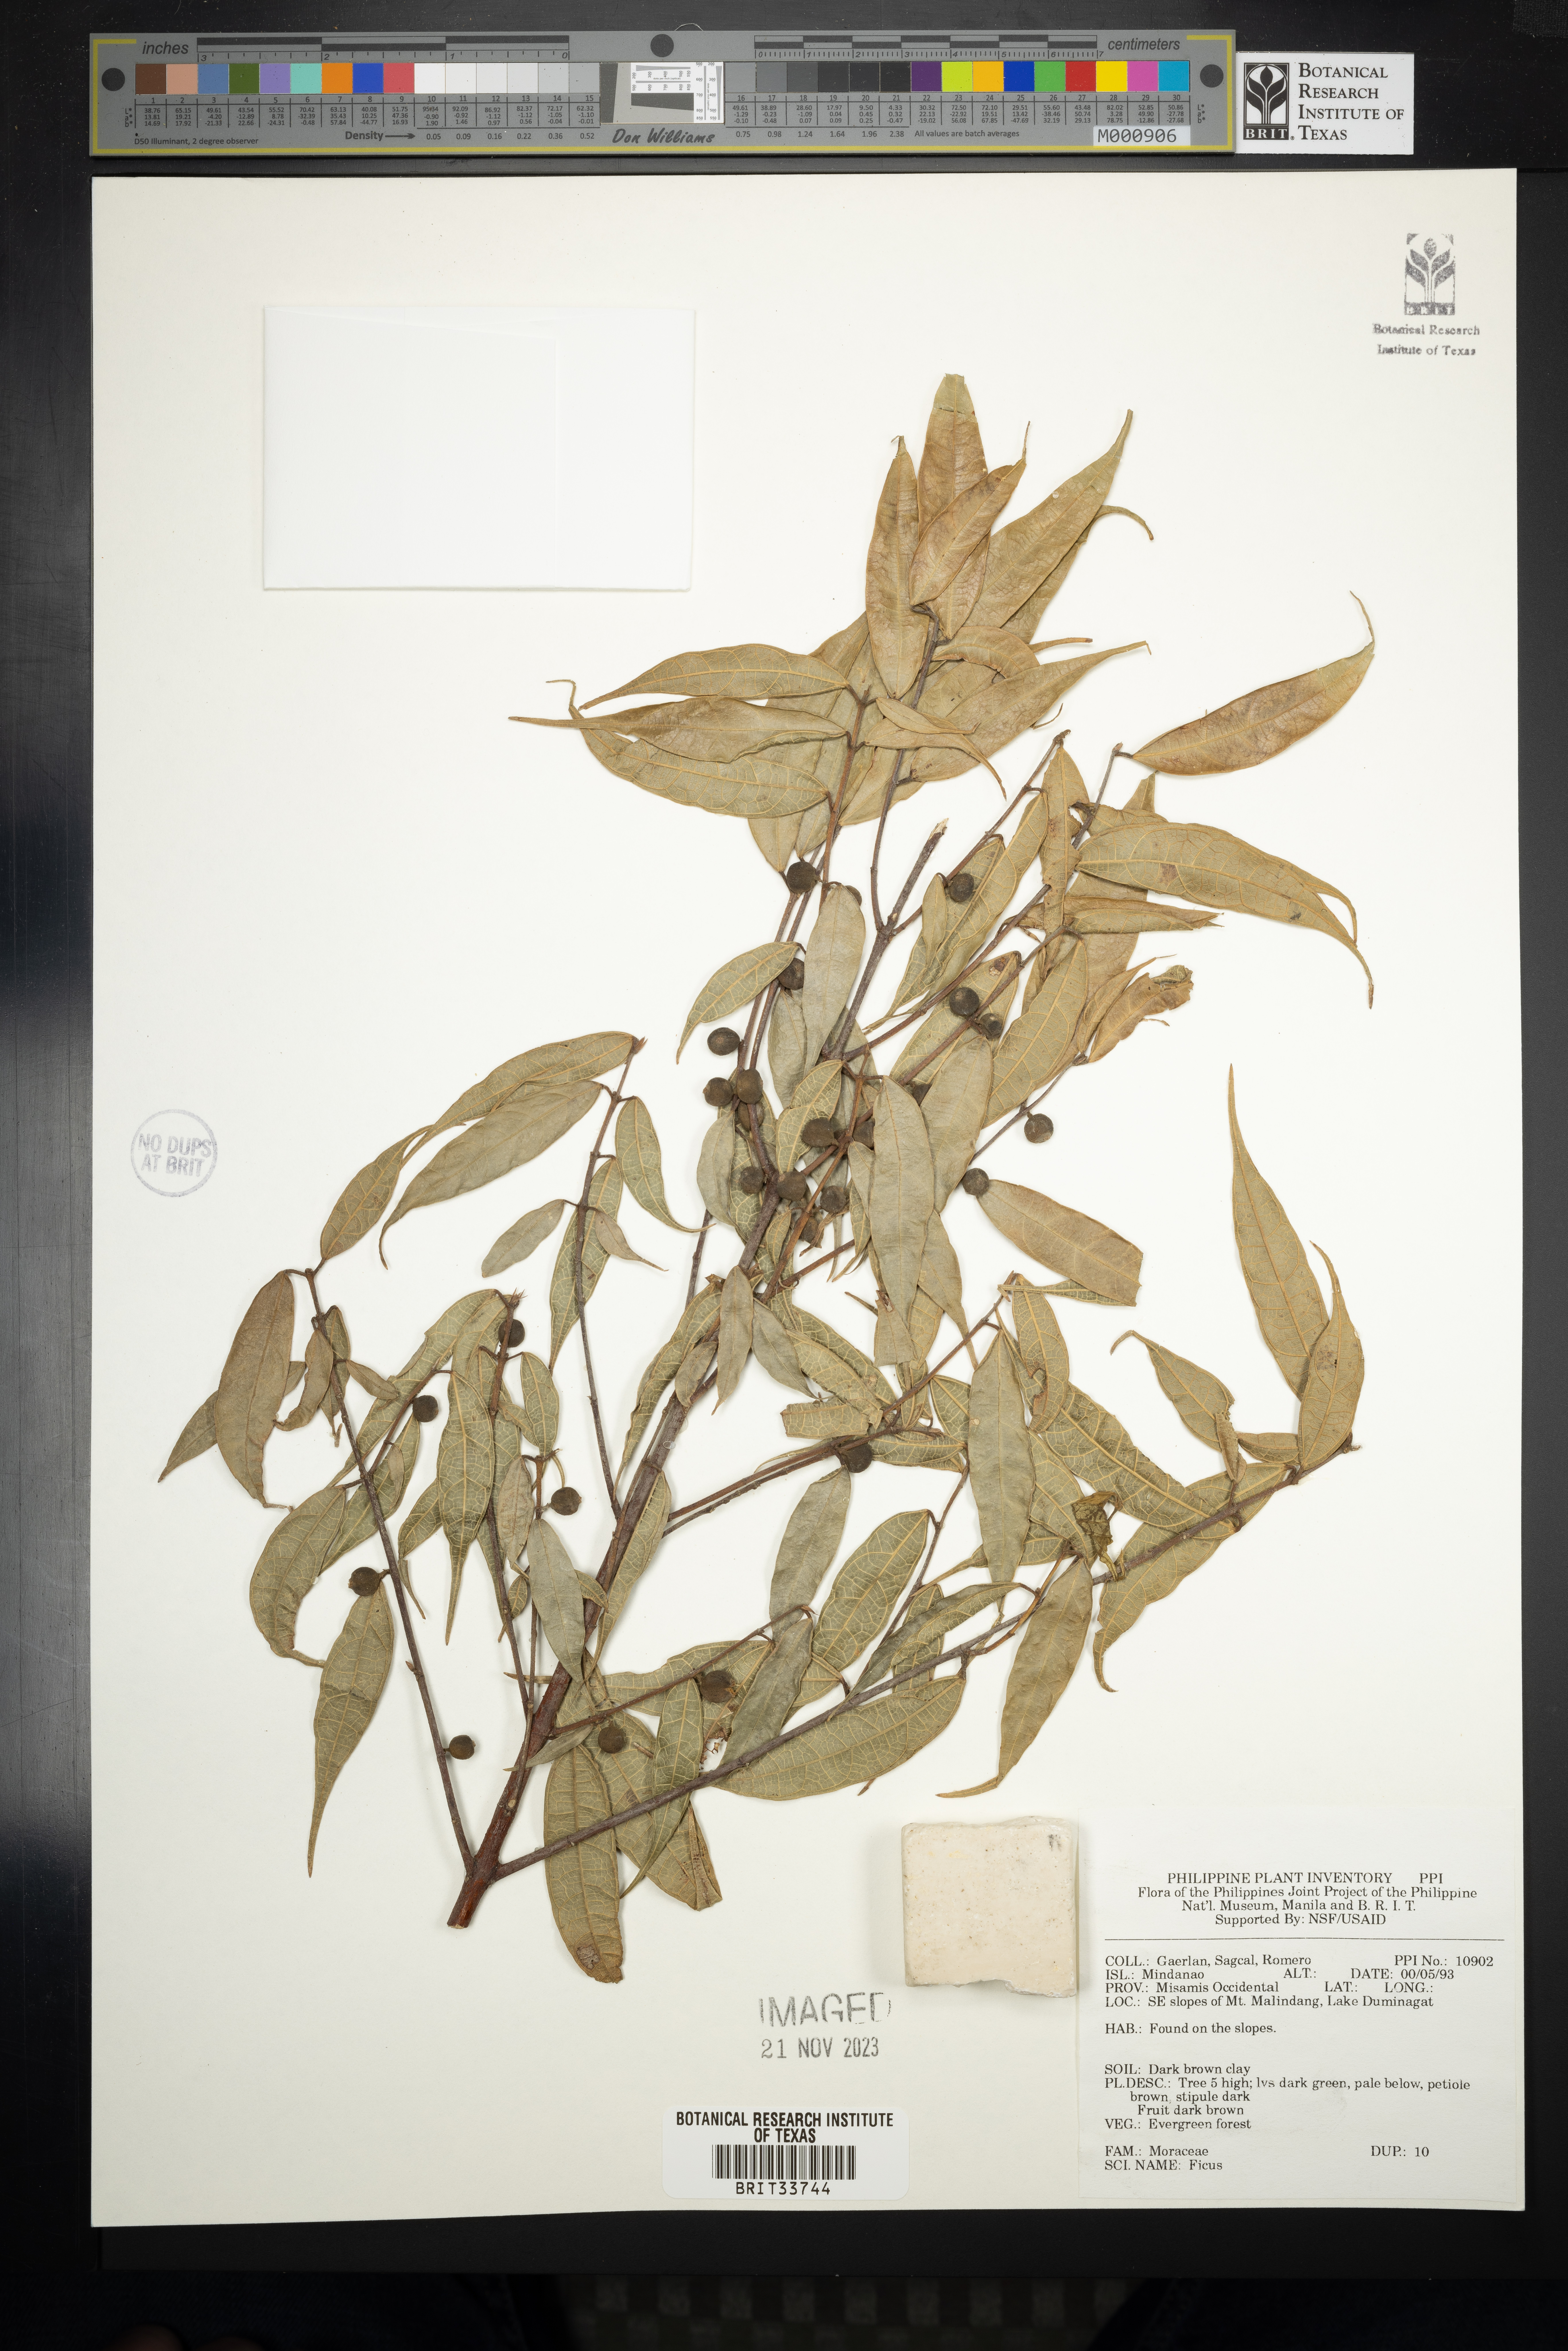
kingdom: Plantae
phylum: Tracheophyta
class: Magnoliopsida
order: Rosales
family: Moraceae
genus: Ficus
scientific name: Ficus
